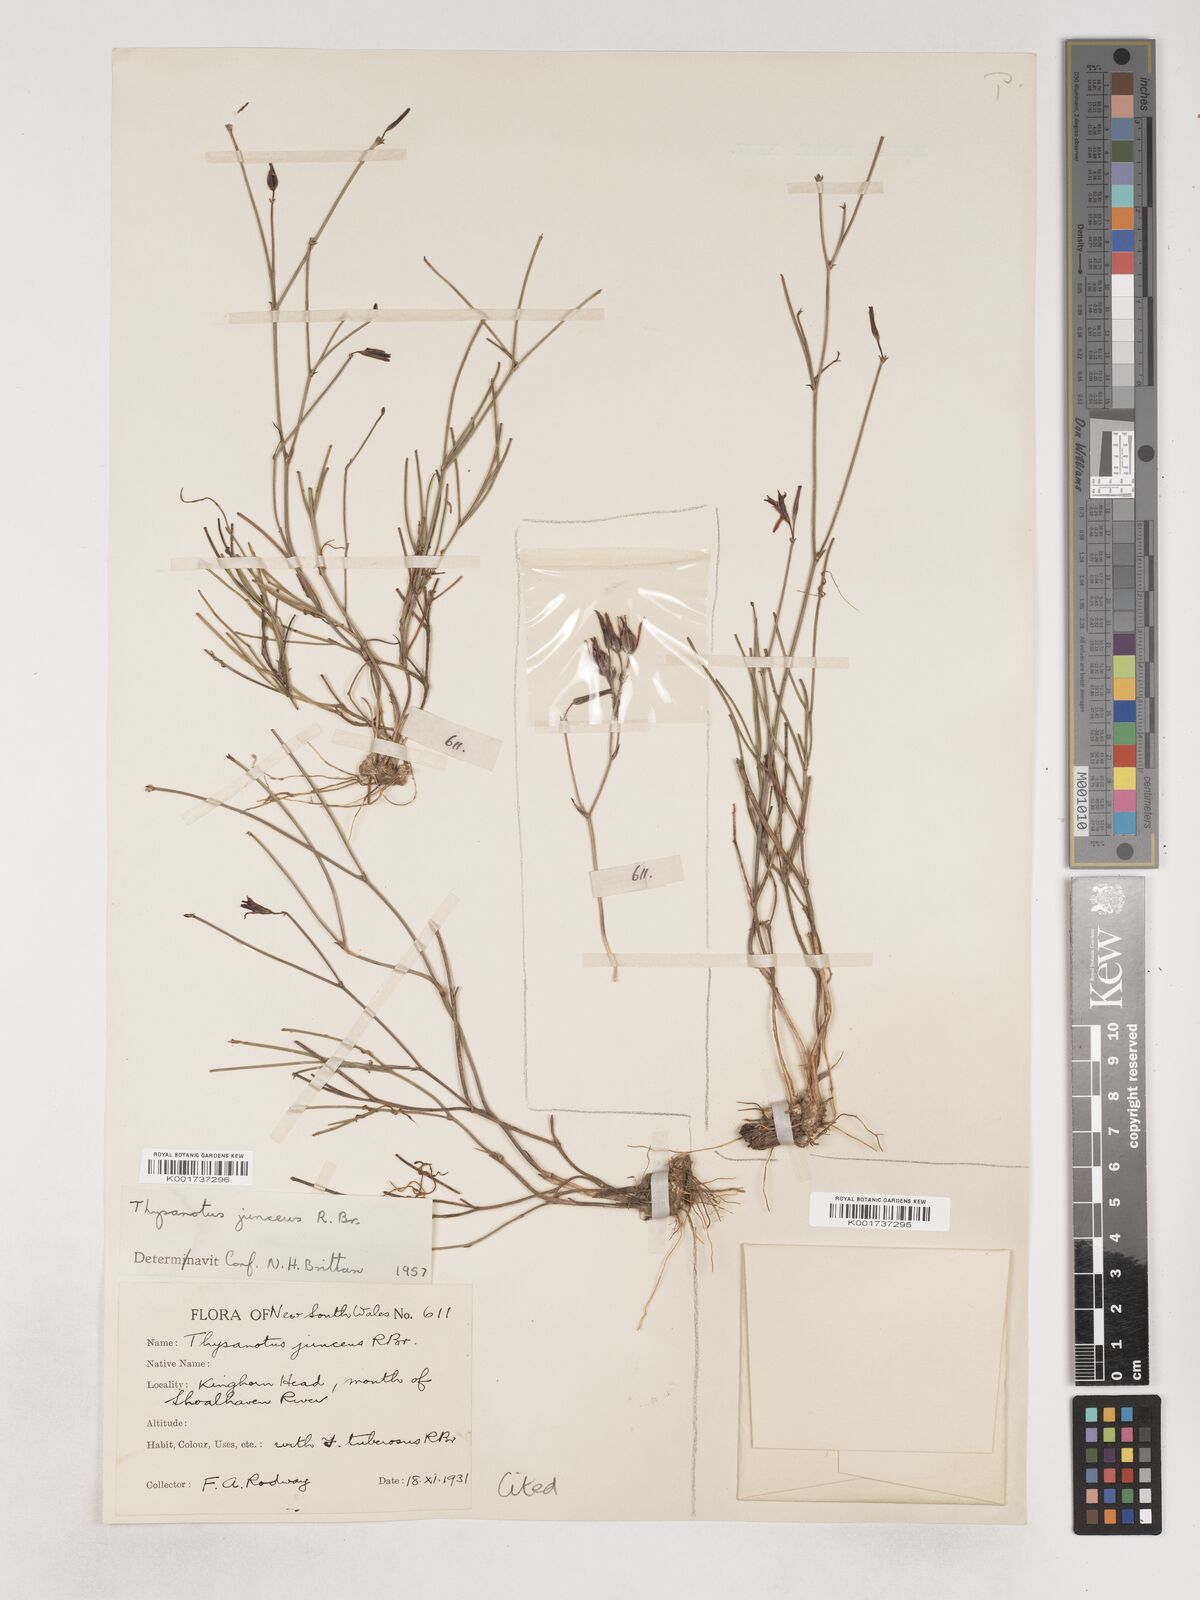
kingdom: Plantae
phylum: Tracheophyta
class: Liliopsida
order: Asparagales
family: Asparagaceae
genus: Thysanotus
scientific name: Thysanotus juncifolius
